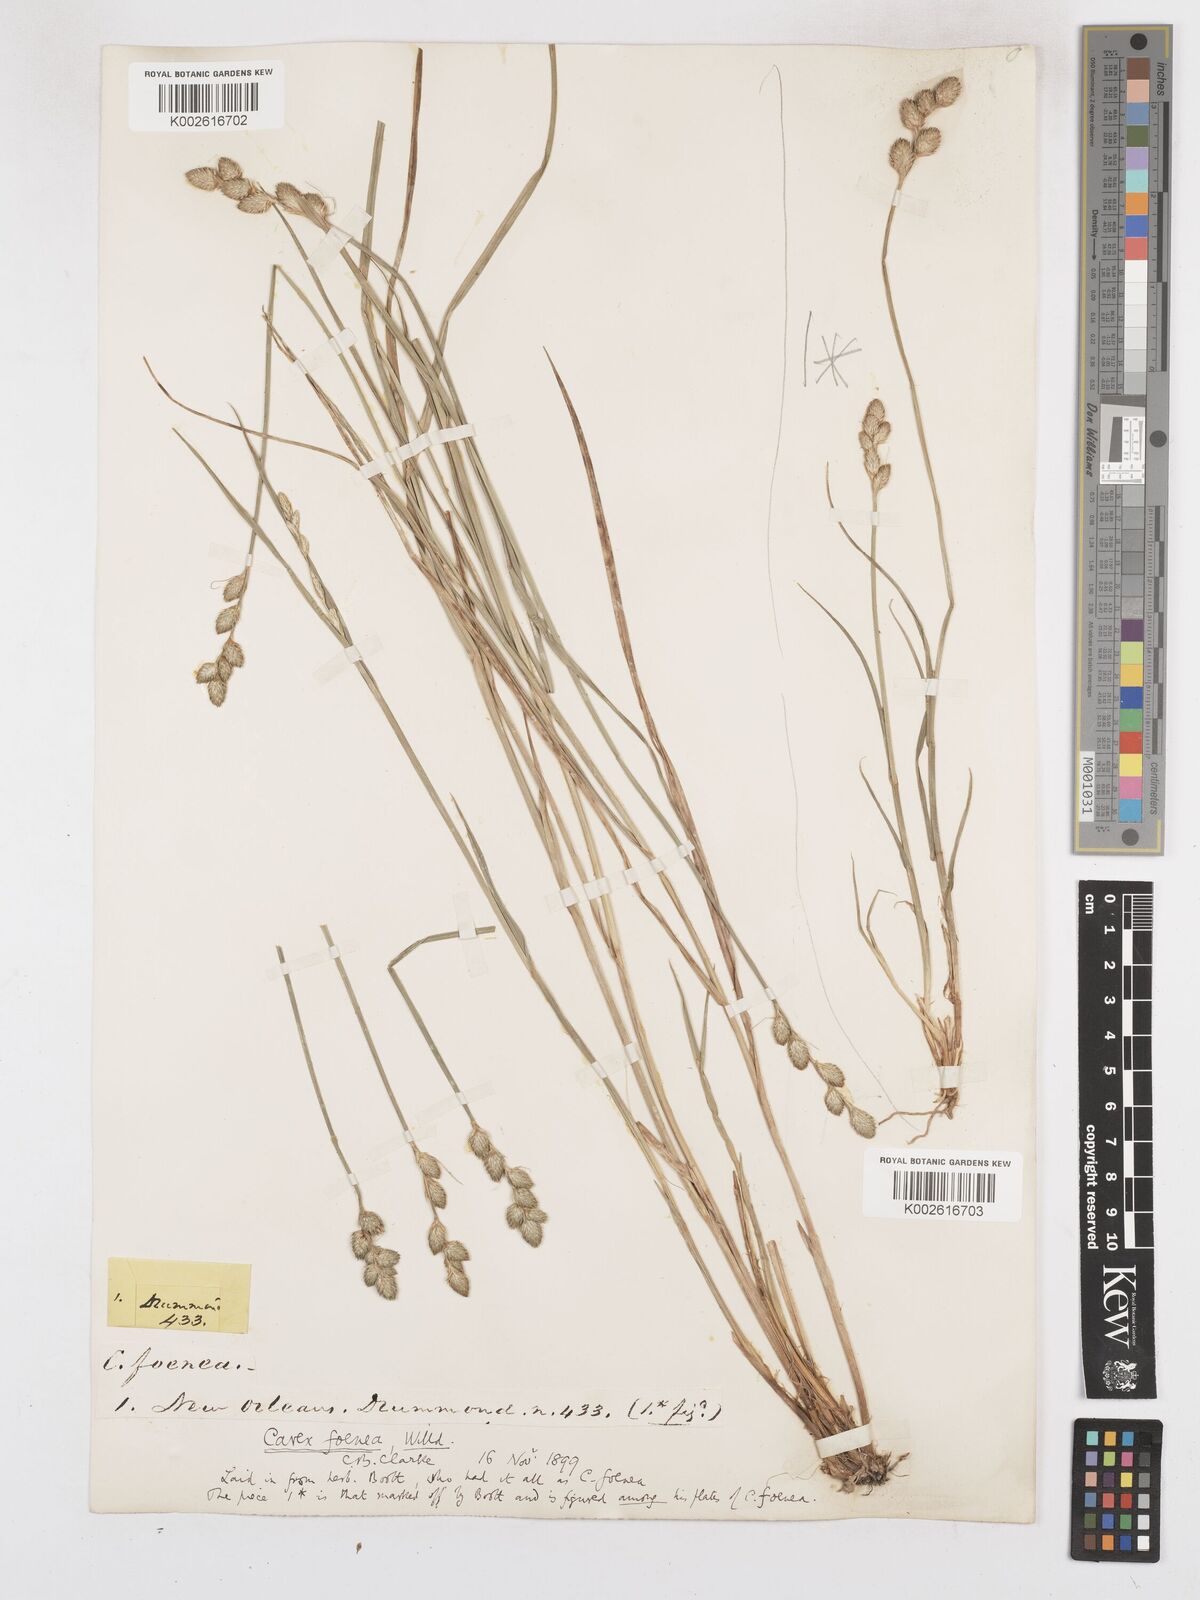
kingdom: Plantae
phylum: Tracheophyta
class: Liliopsida
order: Poales
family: Cyperaceae
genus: Carex
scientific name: Carex argyrantha
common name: Silvery-flowered sedge
